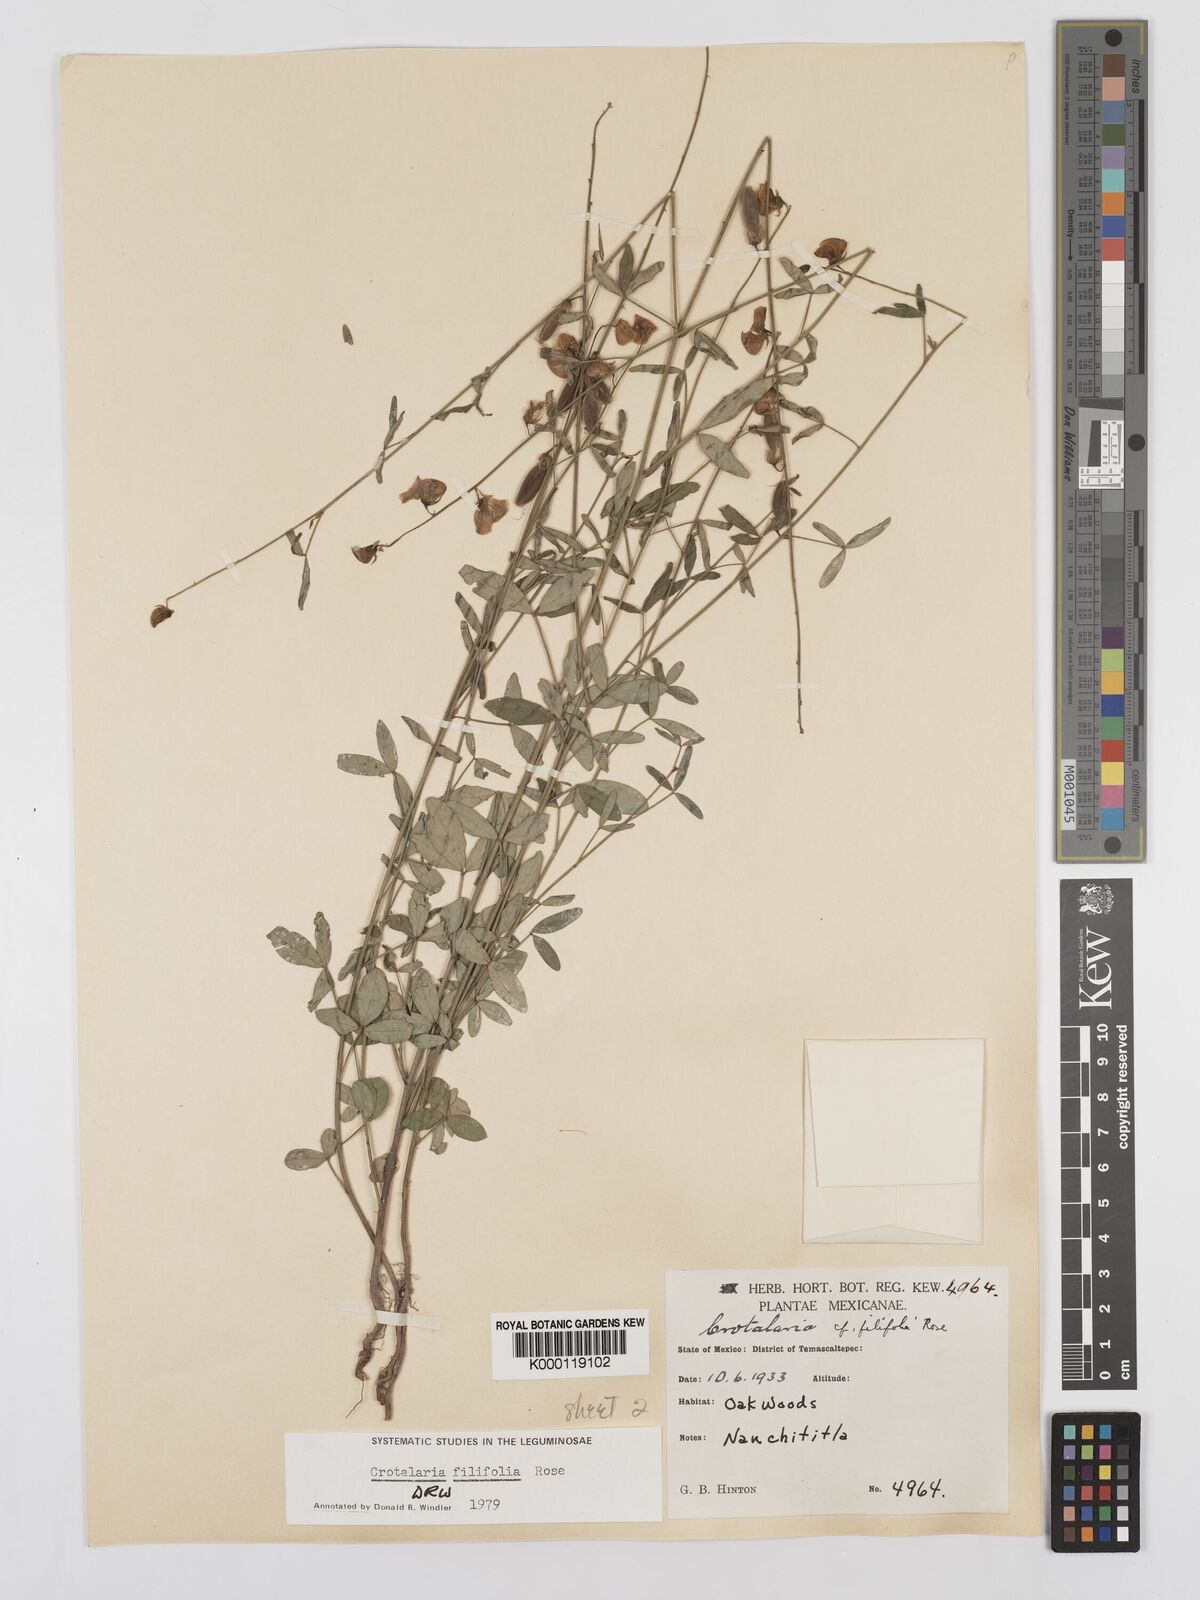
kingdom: Plantae
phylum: Tracheophyta
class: Magnoliopsida
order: Fabales
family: Fabaceae
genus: Crotalaria
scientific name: Crotalaria filifolia
